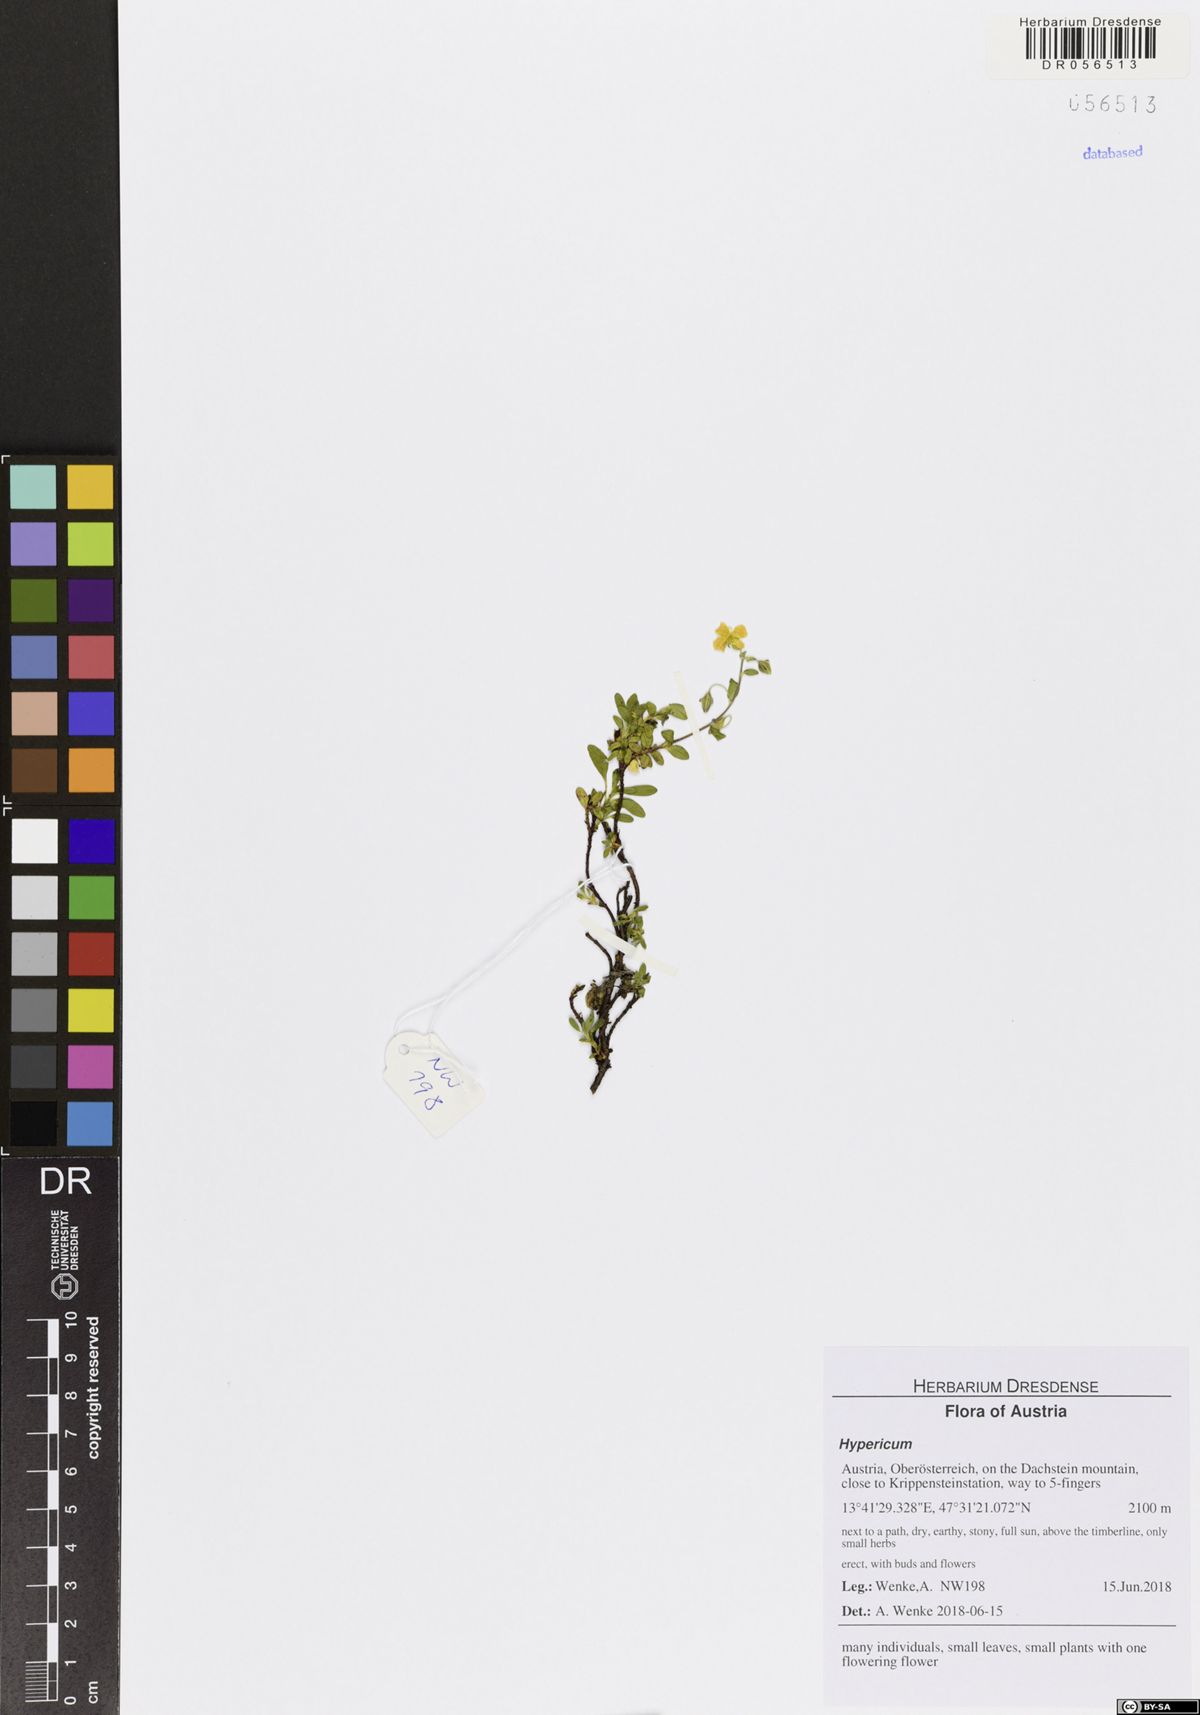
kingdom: Plantae
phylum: Tracheophyta
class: Magnoliopsida
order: Malpighiales
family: Hypericaceae
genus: Hypericum
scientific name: Hypericum
